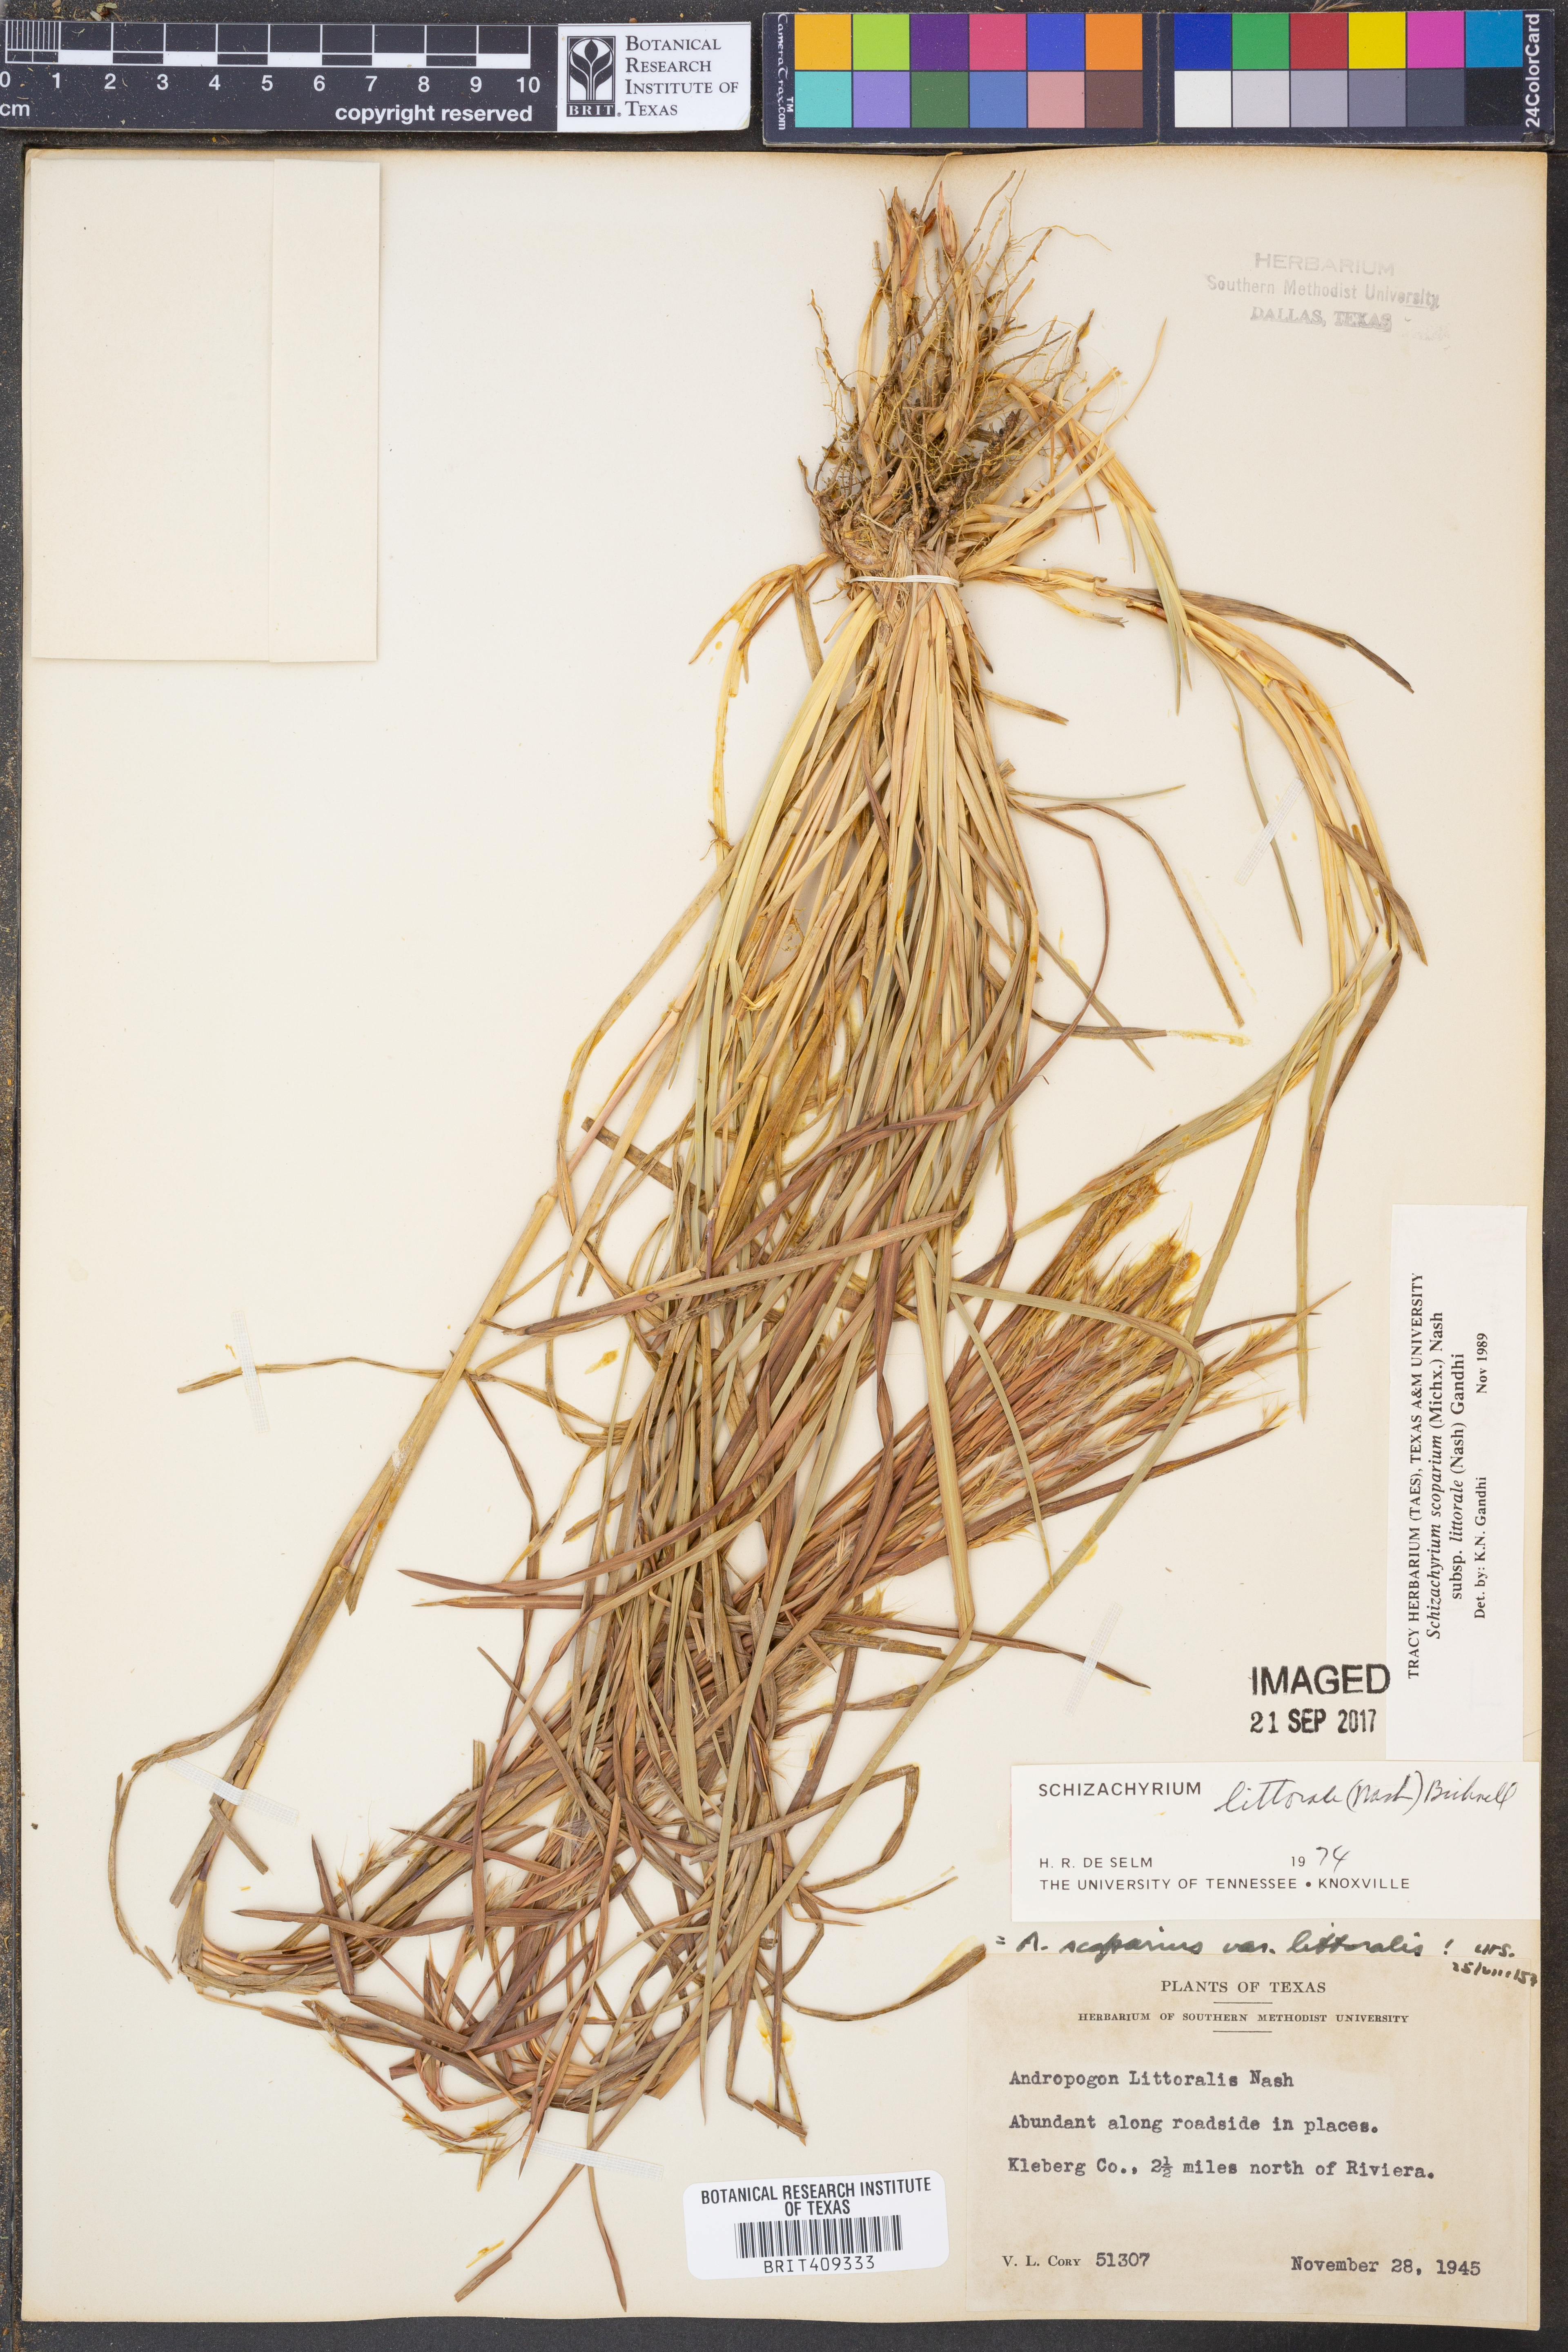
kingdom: Plantae
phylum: Tracheophyta
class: Liliopsida
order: Poales
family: Poaceae
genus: Schizachyrium
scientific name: Schizachyrium scoparium
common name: Little bluestem
